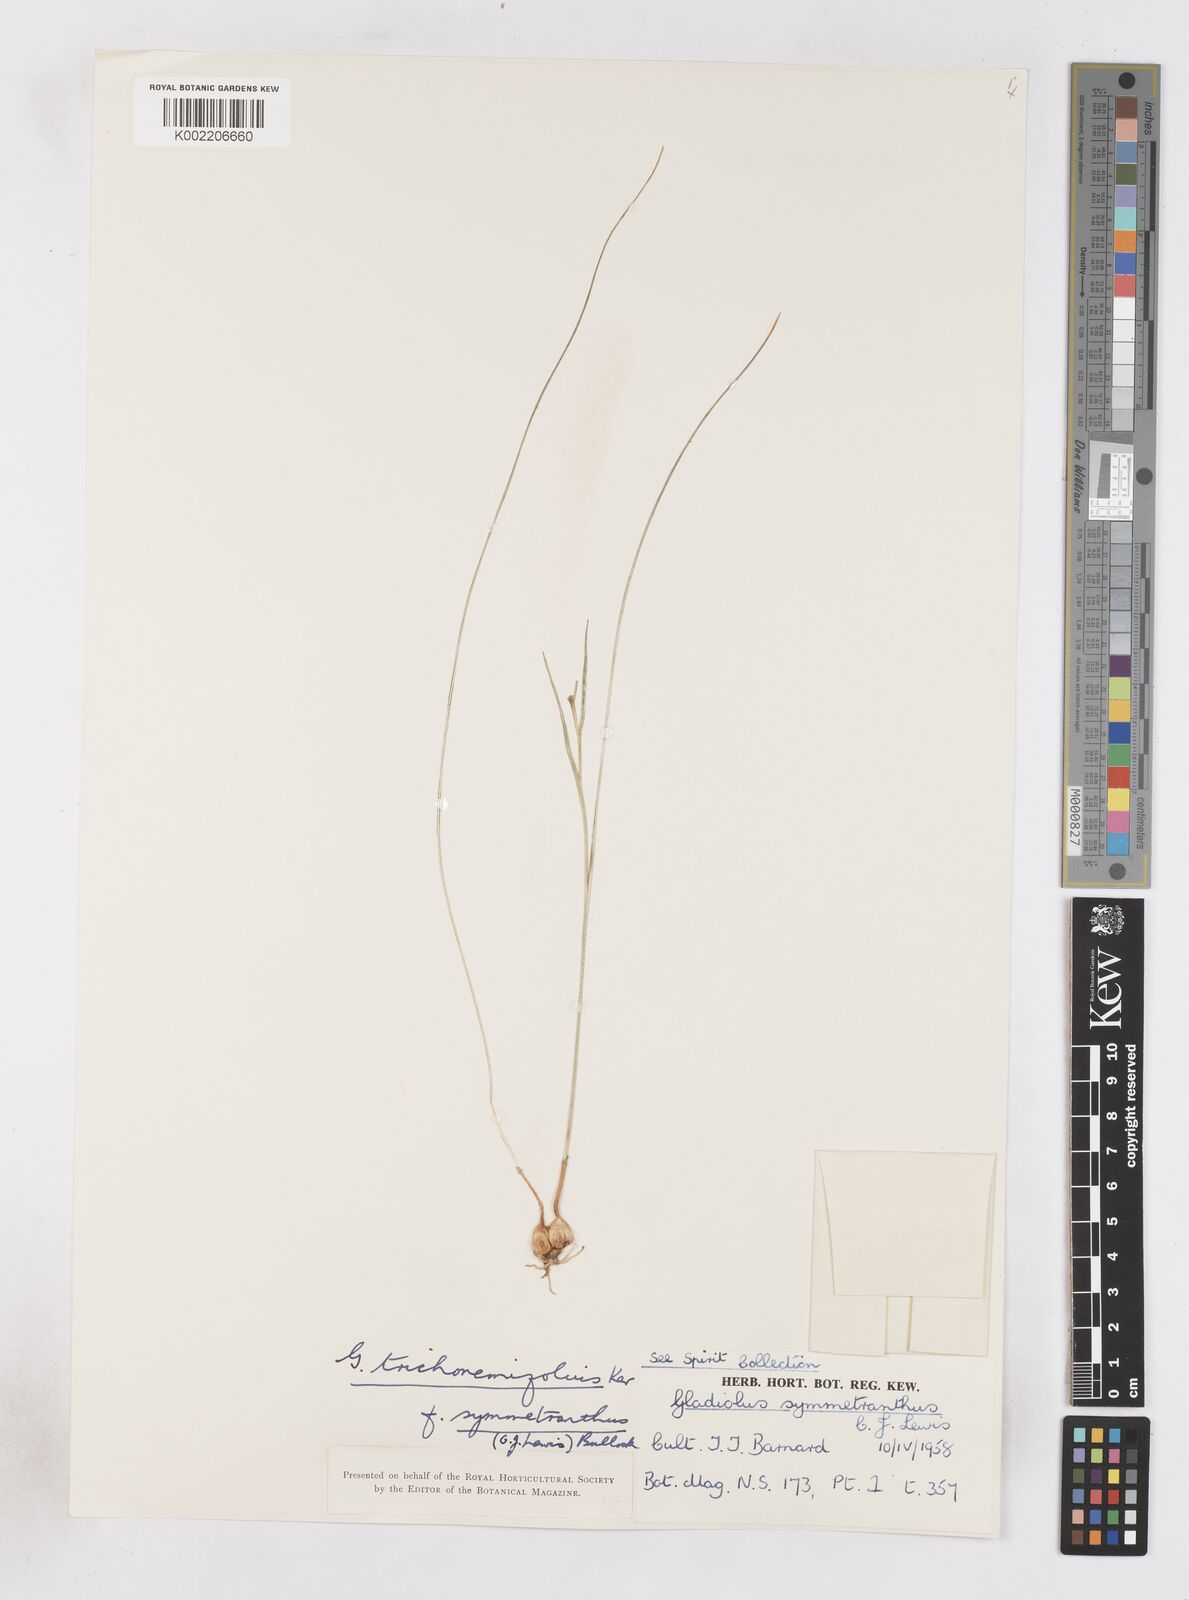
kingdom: Plantae
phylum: Tracheophyta
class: Liliopsida
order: Asparagales
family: Iridaceae
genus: Gladiolus
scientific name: Gladiolus trichonemifolius
